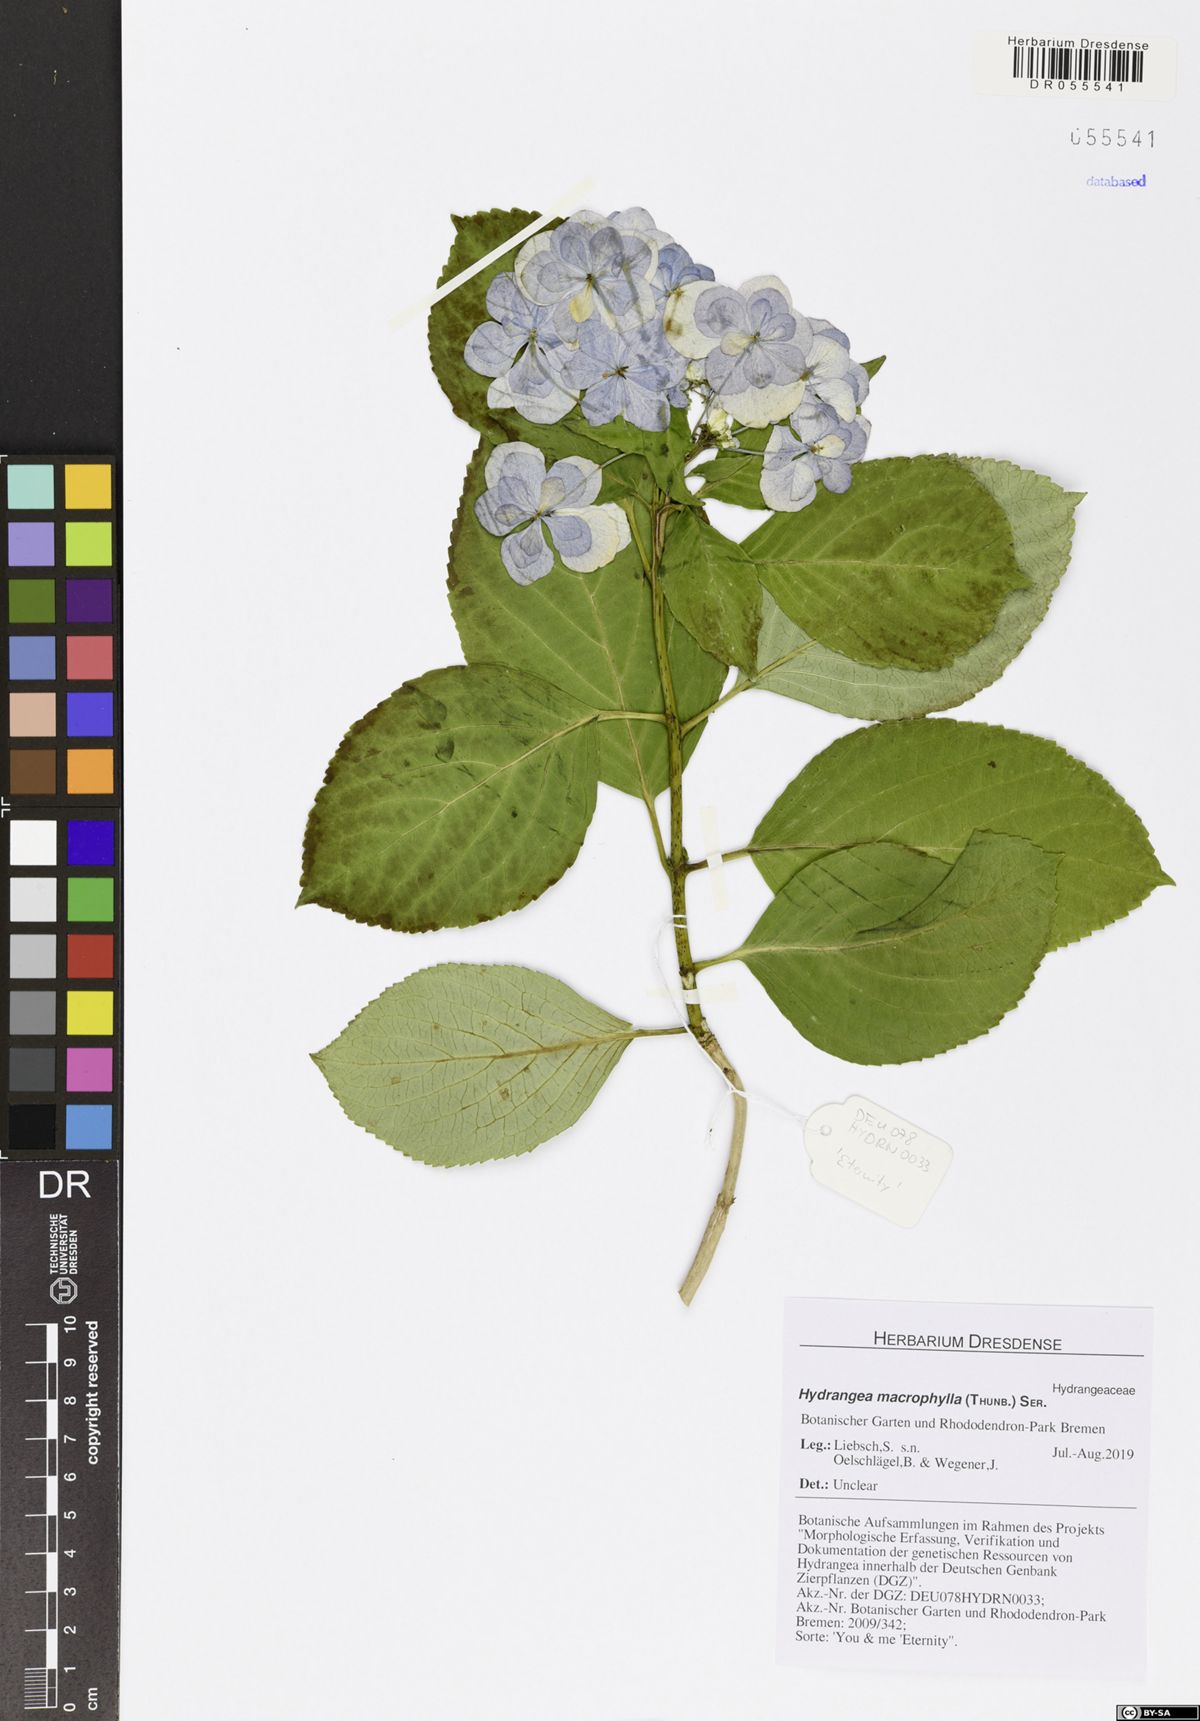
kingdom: Plantae
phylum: Tracheophyta
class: Magnoliopsida
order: Cornales
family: Hydrangeaceae
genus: Hydrangea
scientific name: Hydrangea macrophylla
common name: Hydrangea
